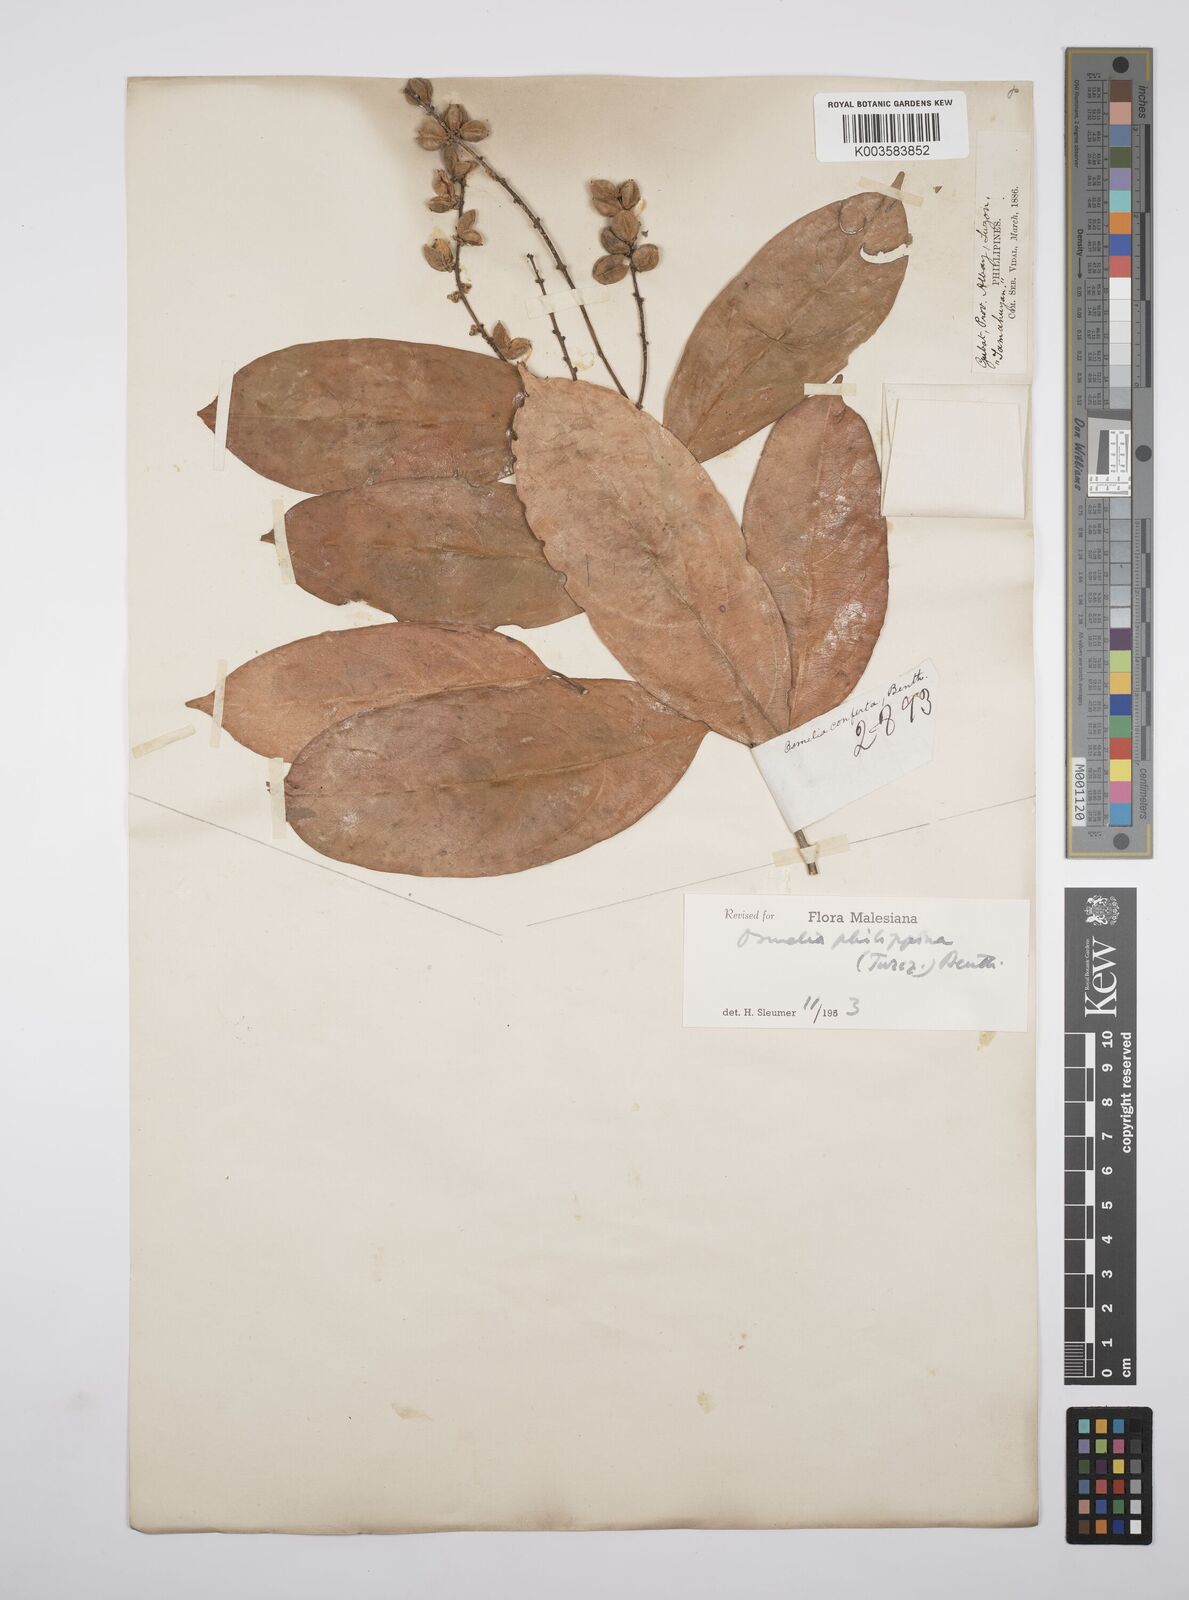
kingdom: Plantae
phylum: Tracheophyta
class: Magnoliopsida
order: Malpighiales
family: Salicaceae
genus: Osmelia
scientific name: Osmelia philippina
